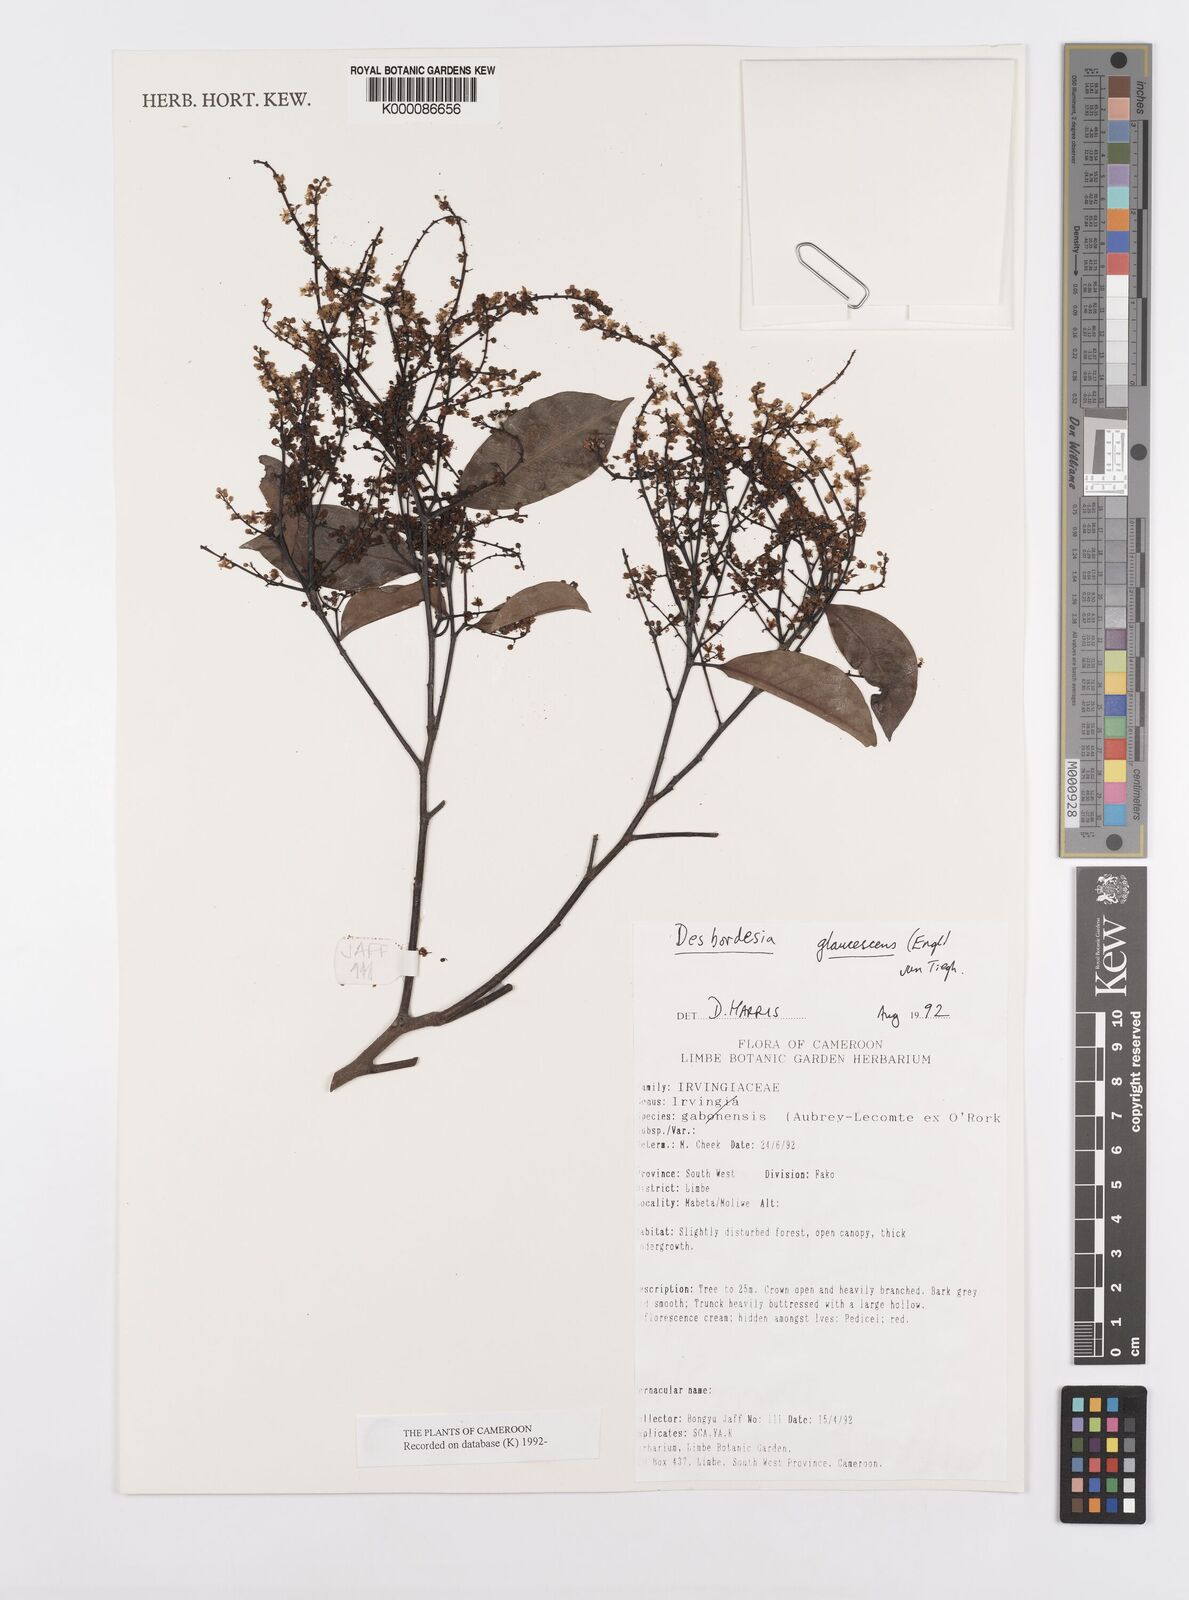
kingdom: Plantae
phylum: Tracheophyta
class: Magnoliopsida
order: Malpighiales
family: Irvingiaceae
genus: Desbordesia
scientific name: Desbordesia glaucescens
